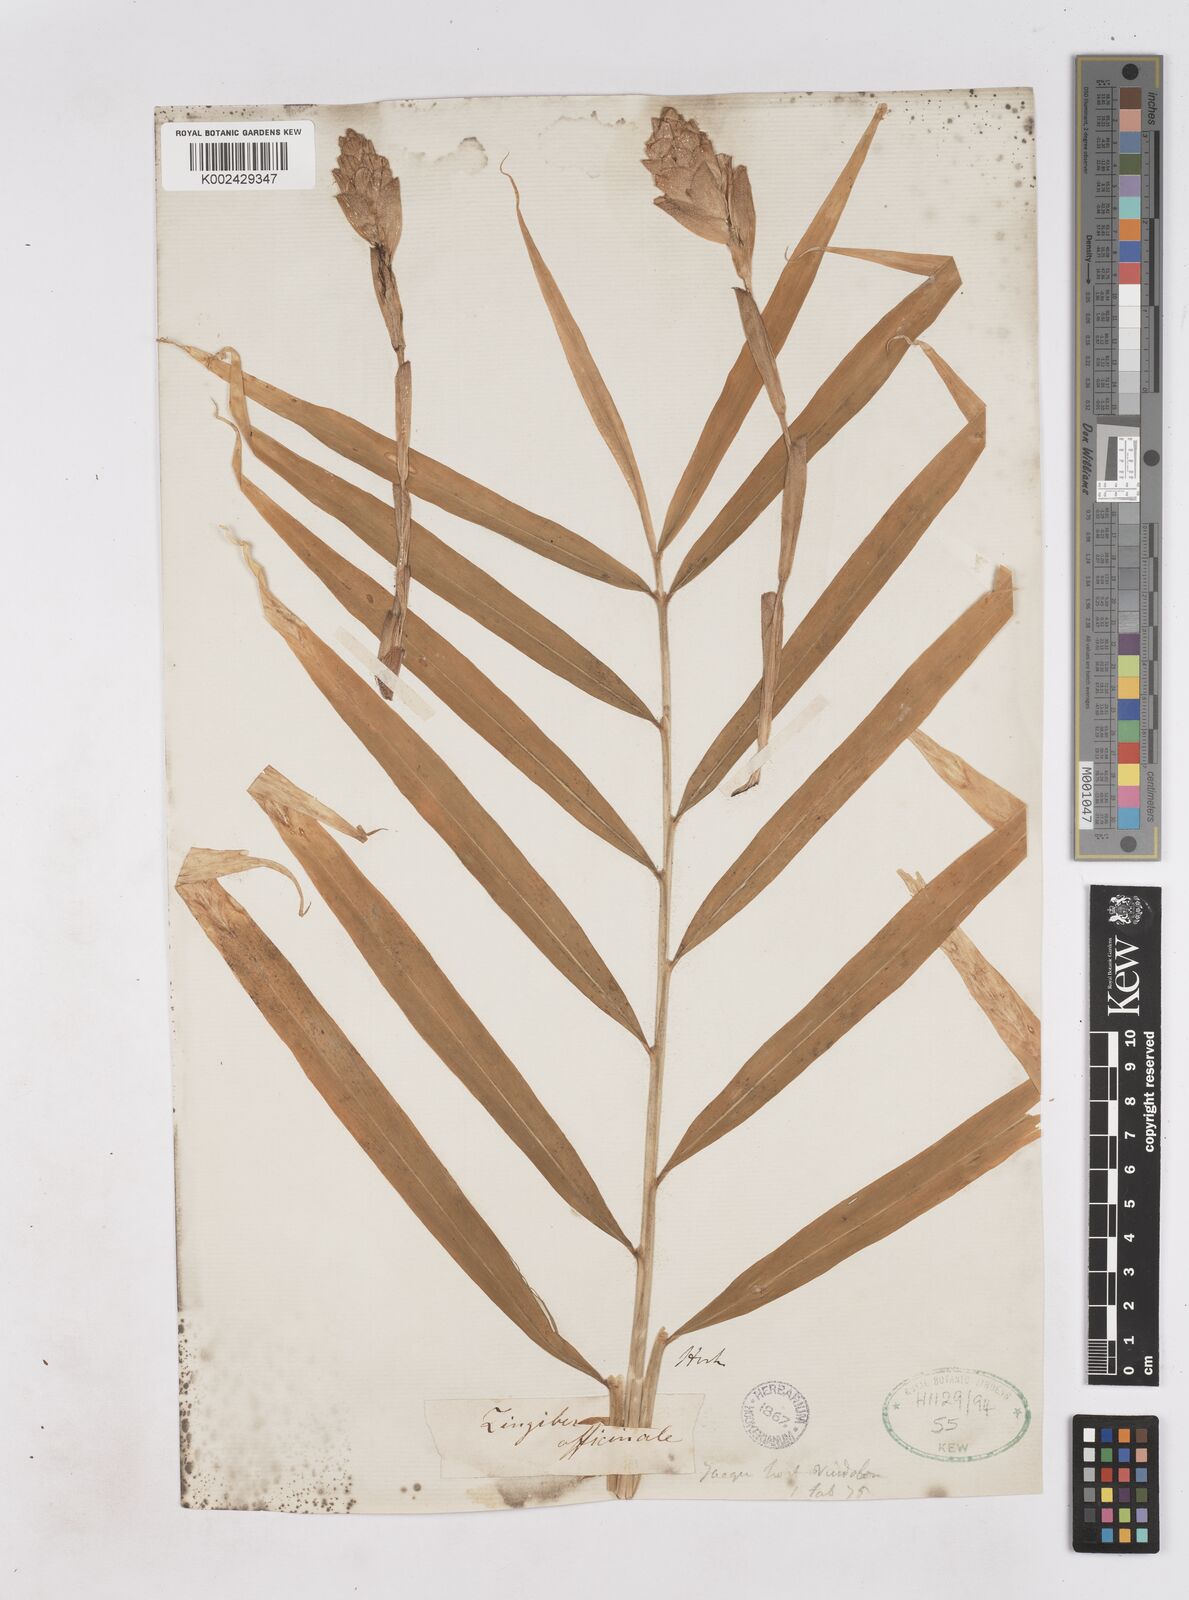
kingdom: Plantae
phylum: Tracheophyta
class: Liliopsida
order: Zingiberales
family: Zingiberaceae
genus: Zingiber
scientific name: Zingiber officinale
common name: Ginger
